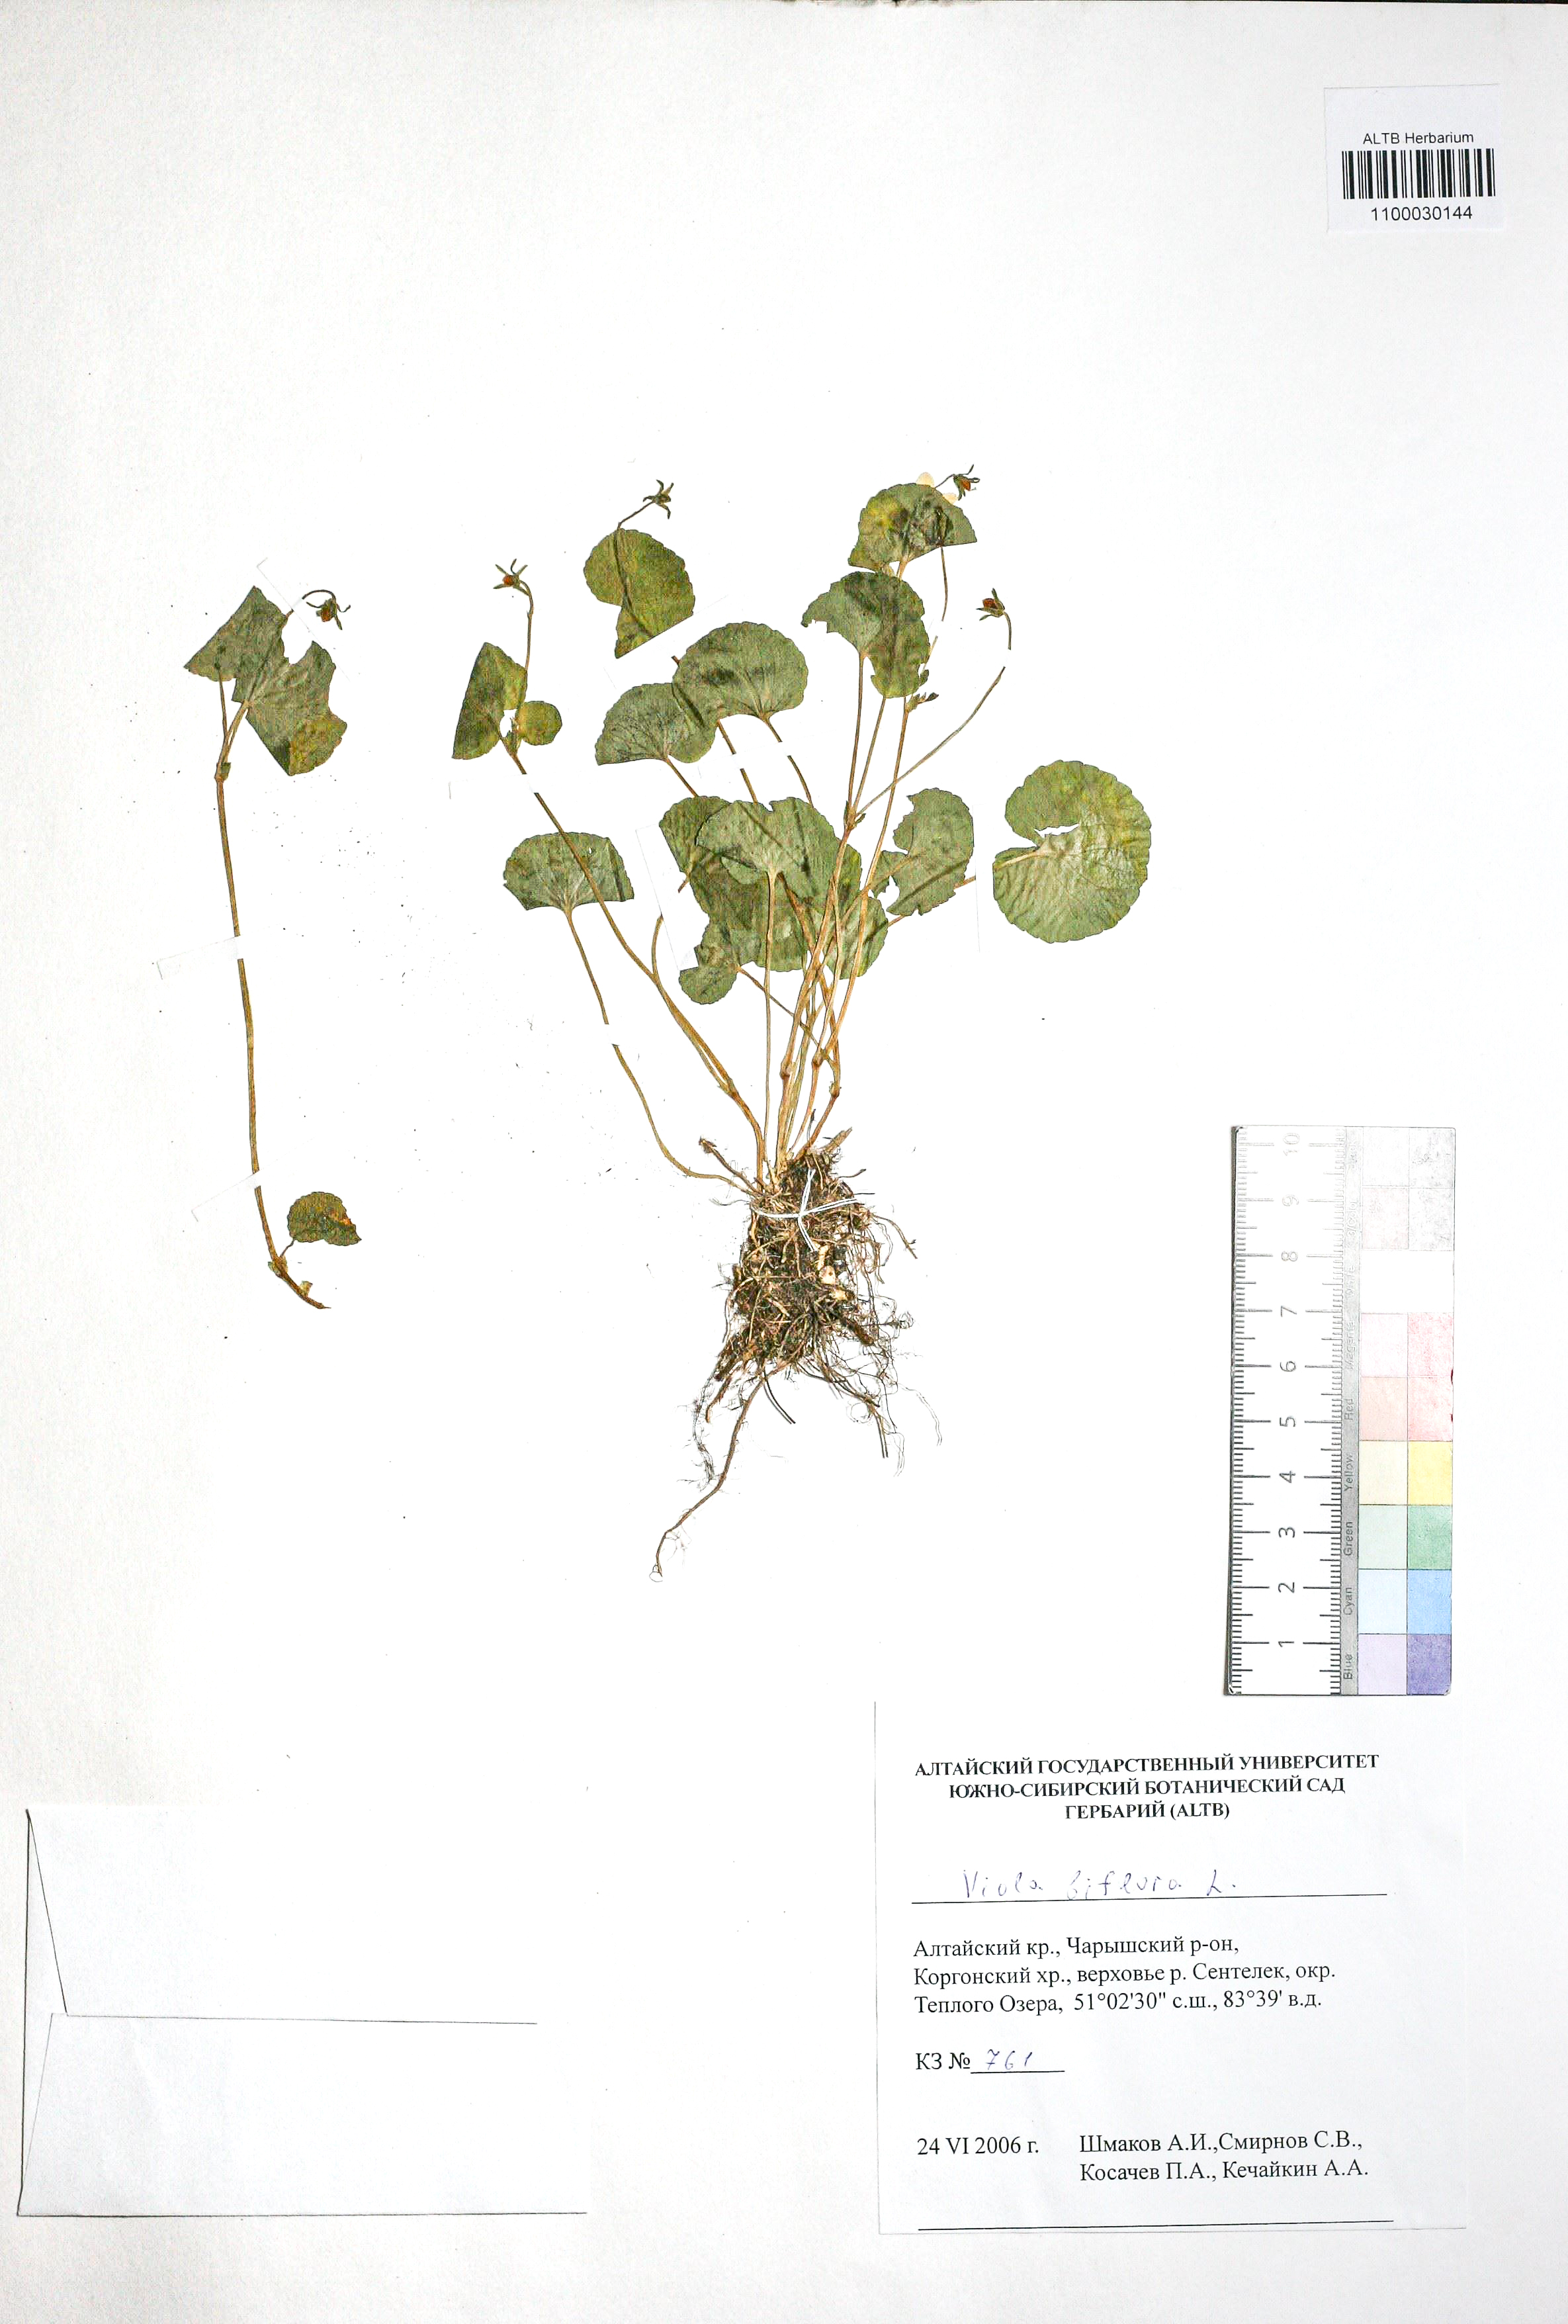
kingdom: Plantae
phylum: Tracheophyta
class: Magnoliopsida
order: Malpighiales
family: Violaceae
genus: Viola
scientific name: Viola biflora
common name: Alpine yellow violet
